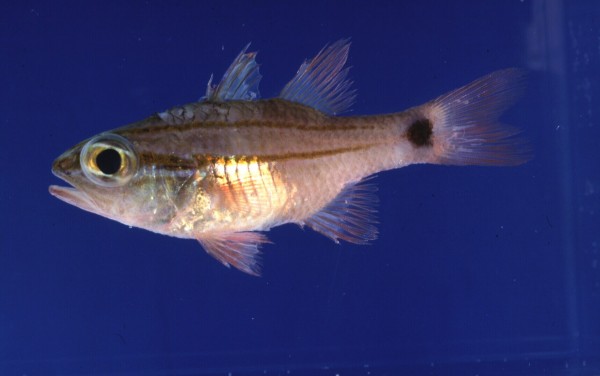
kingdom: Animalia
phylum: Chordata
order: Perciformes
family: Apogonidae
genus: Ostorhinchus
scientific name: Ostorhinchus fukuii
